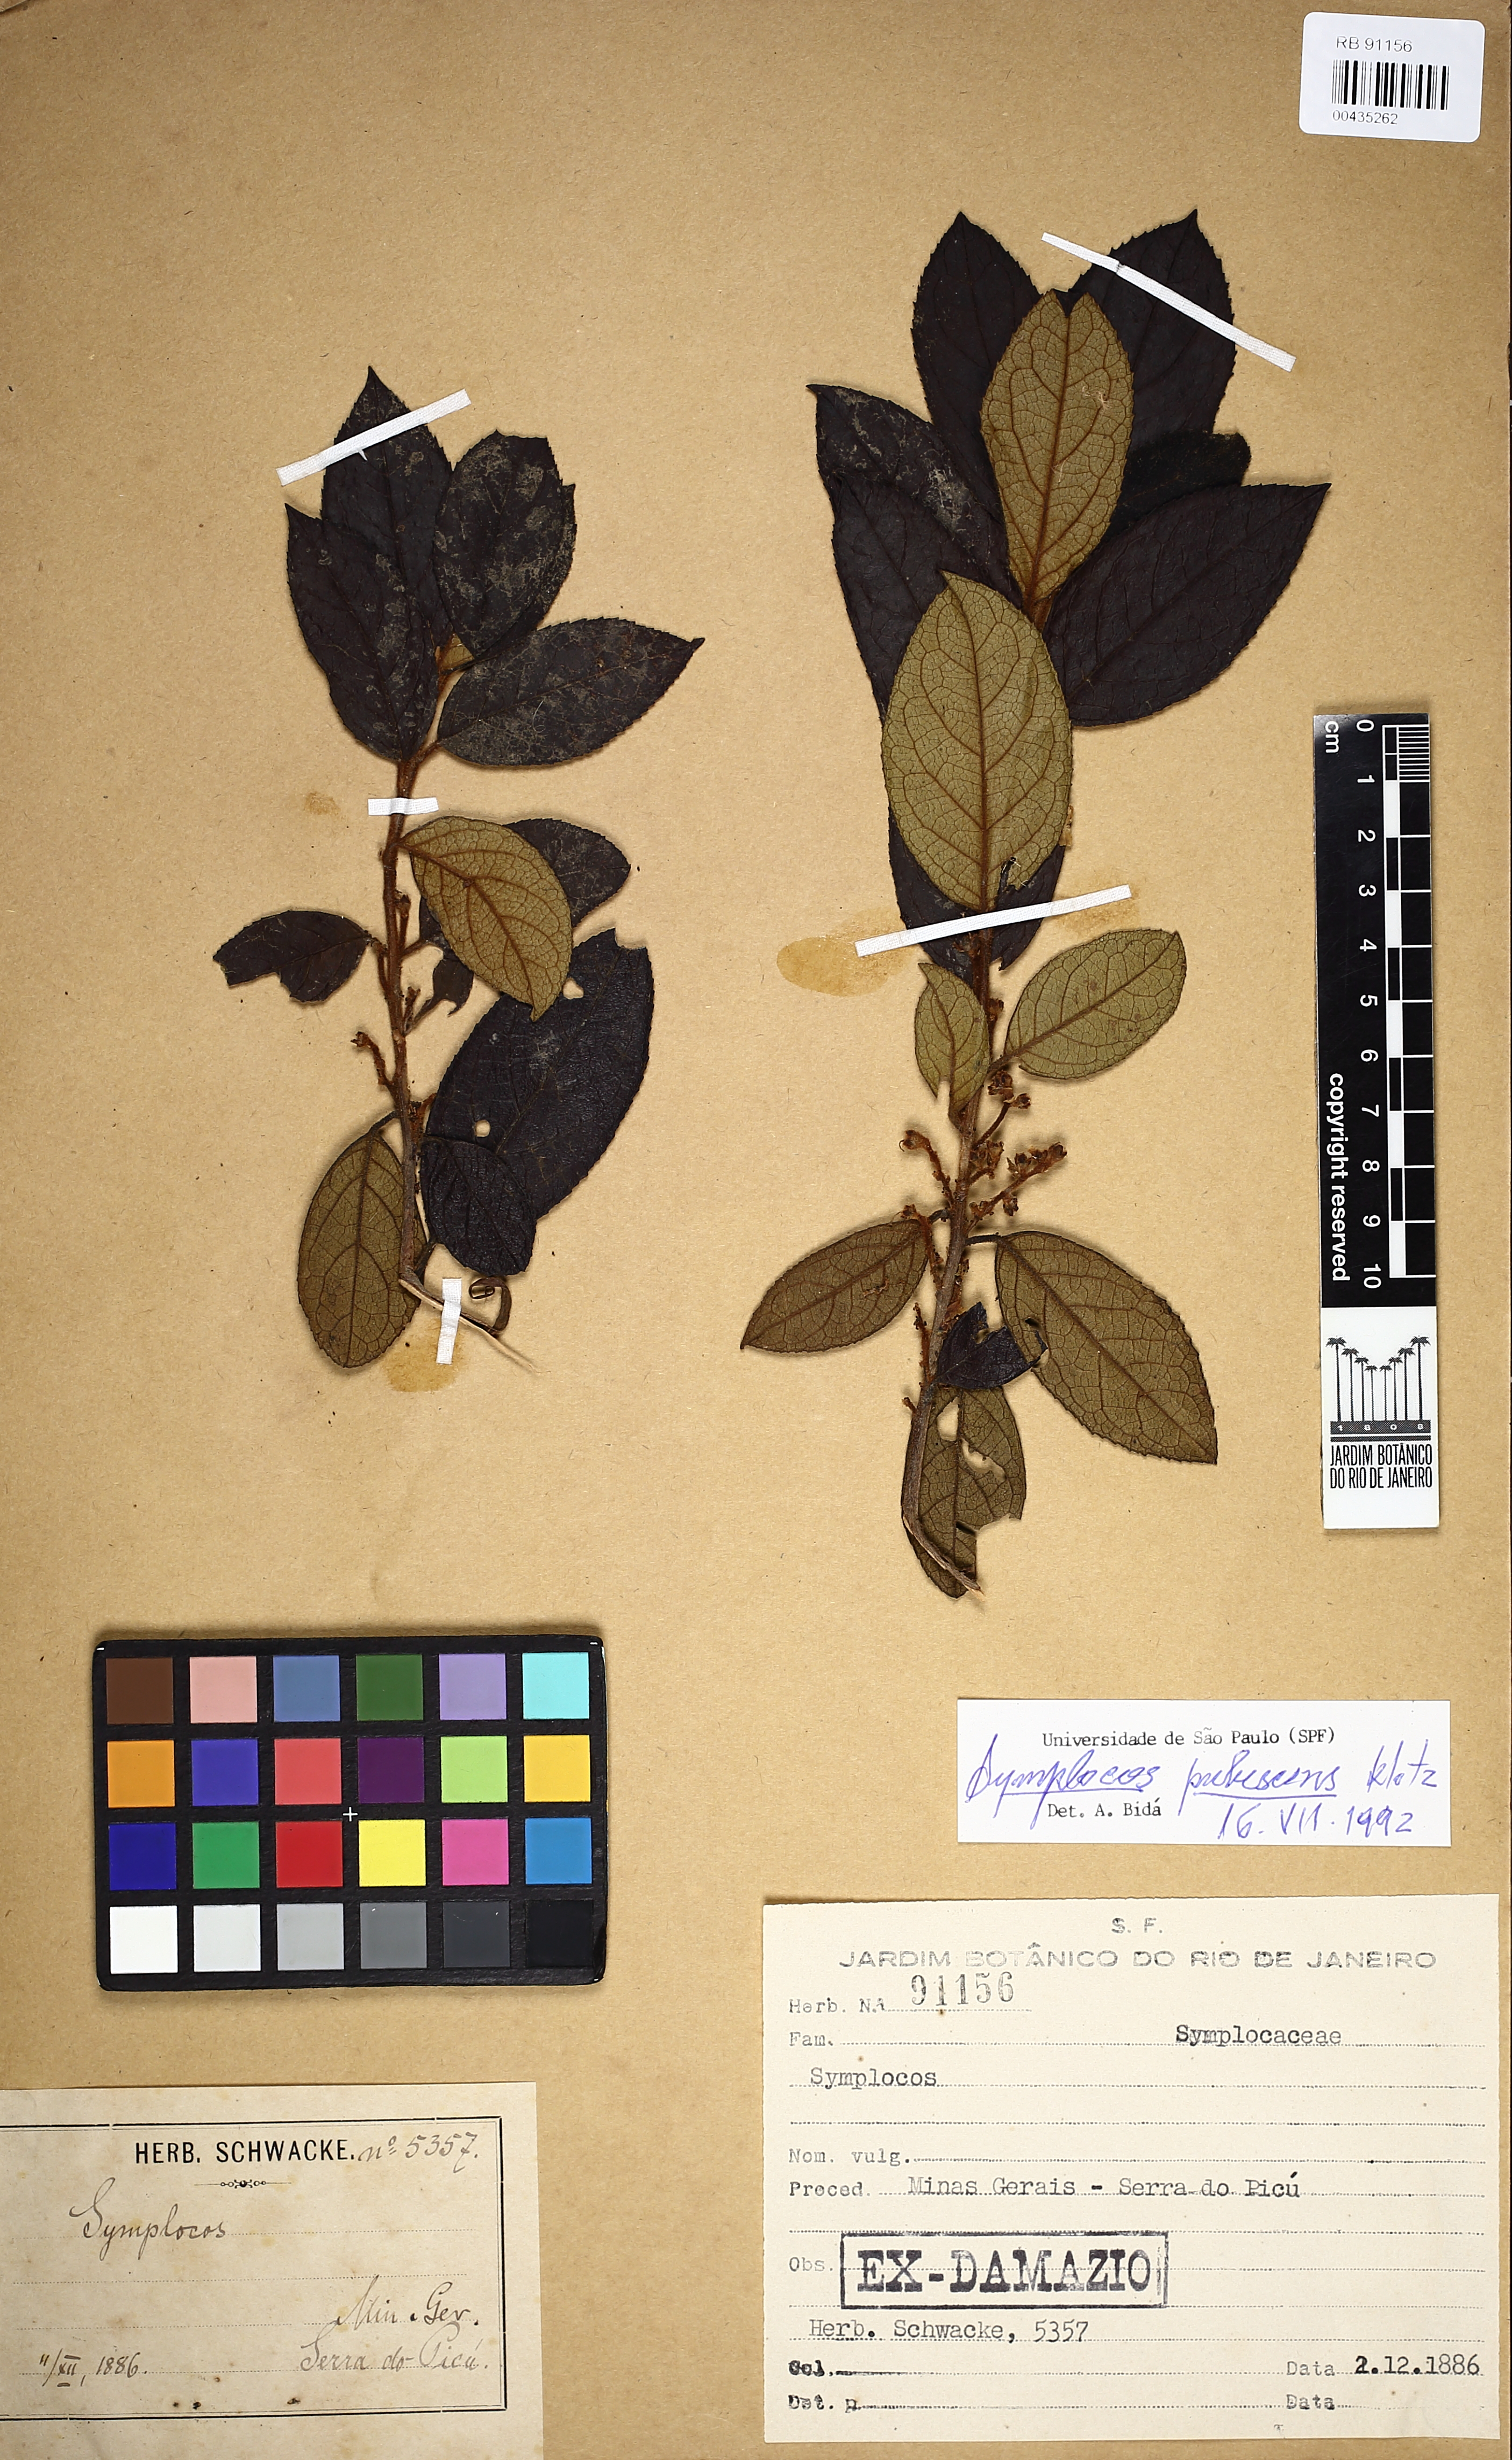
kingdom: Plantae
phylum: Tracheophyta
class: Magnoliopsida
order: Ericales
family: Symplocaceae
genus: Symplocos
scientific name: Symplocos pubescens
